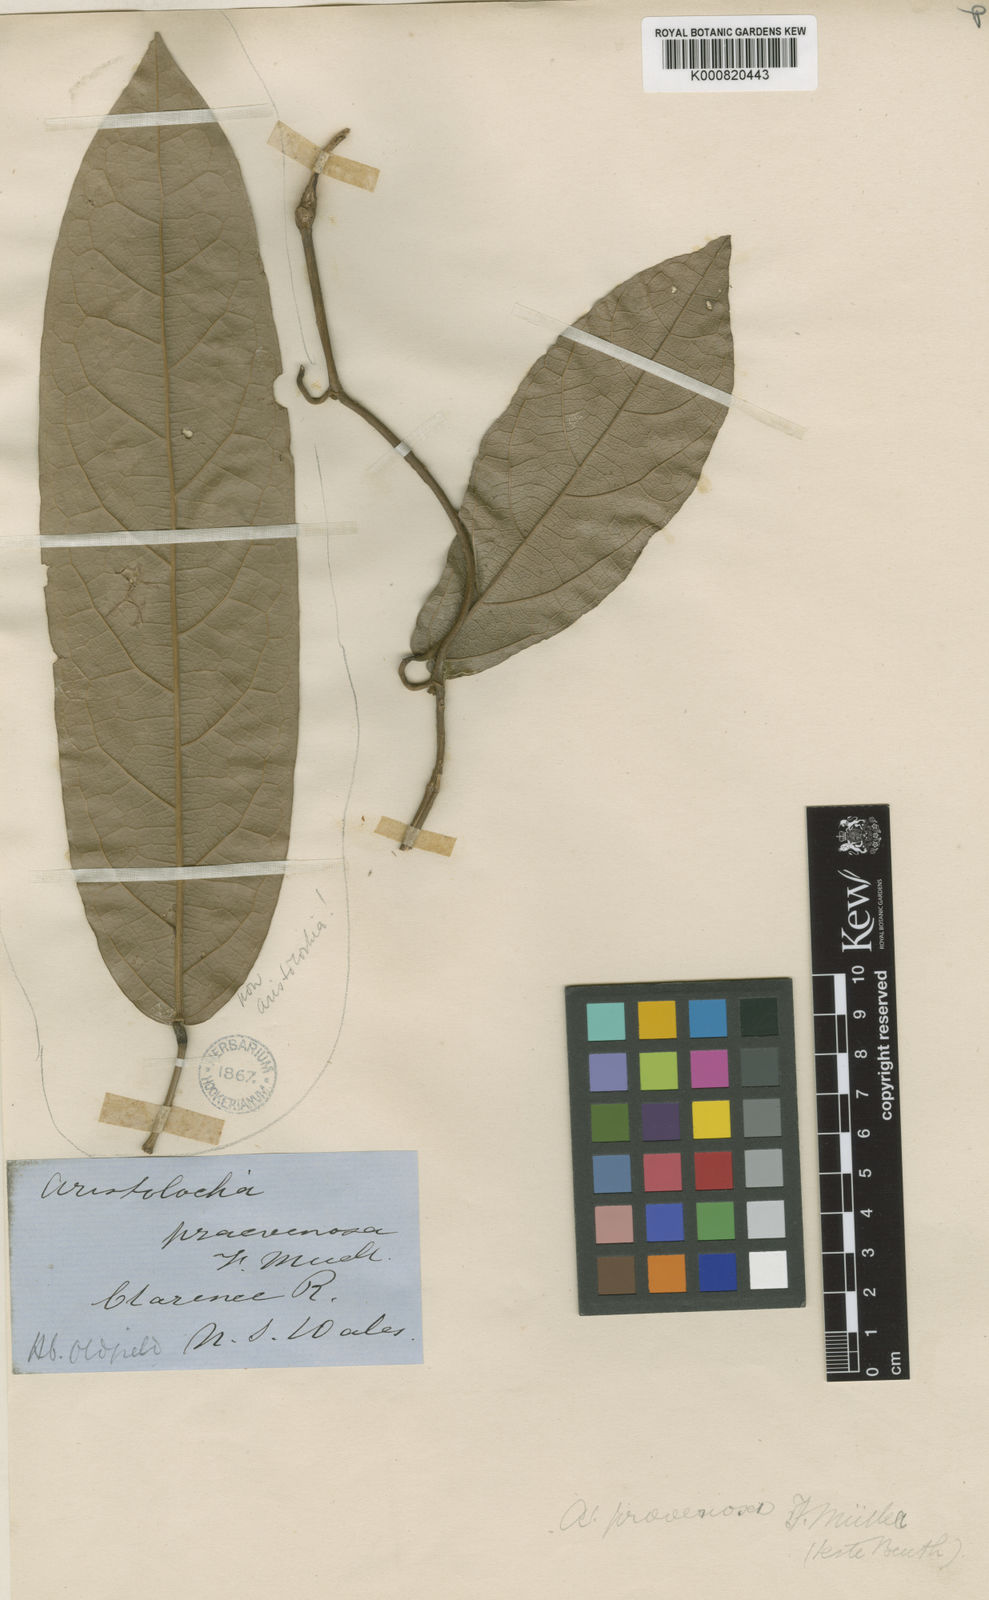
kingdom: Plantae
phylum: Tracheophyta
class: Magnoliopsida
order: Piperales
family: Aristolochiaceae
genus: Aristolochia
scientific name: Aristolochia praevenosa
